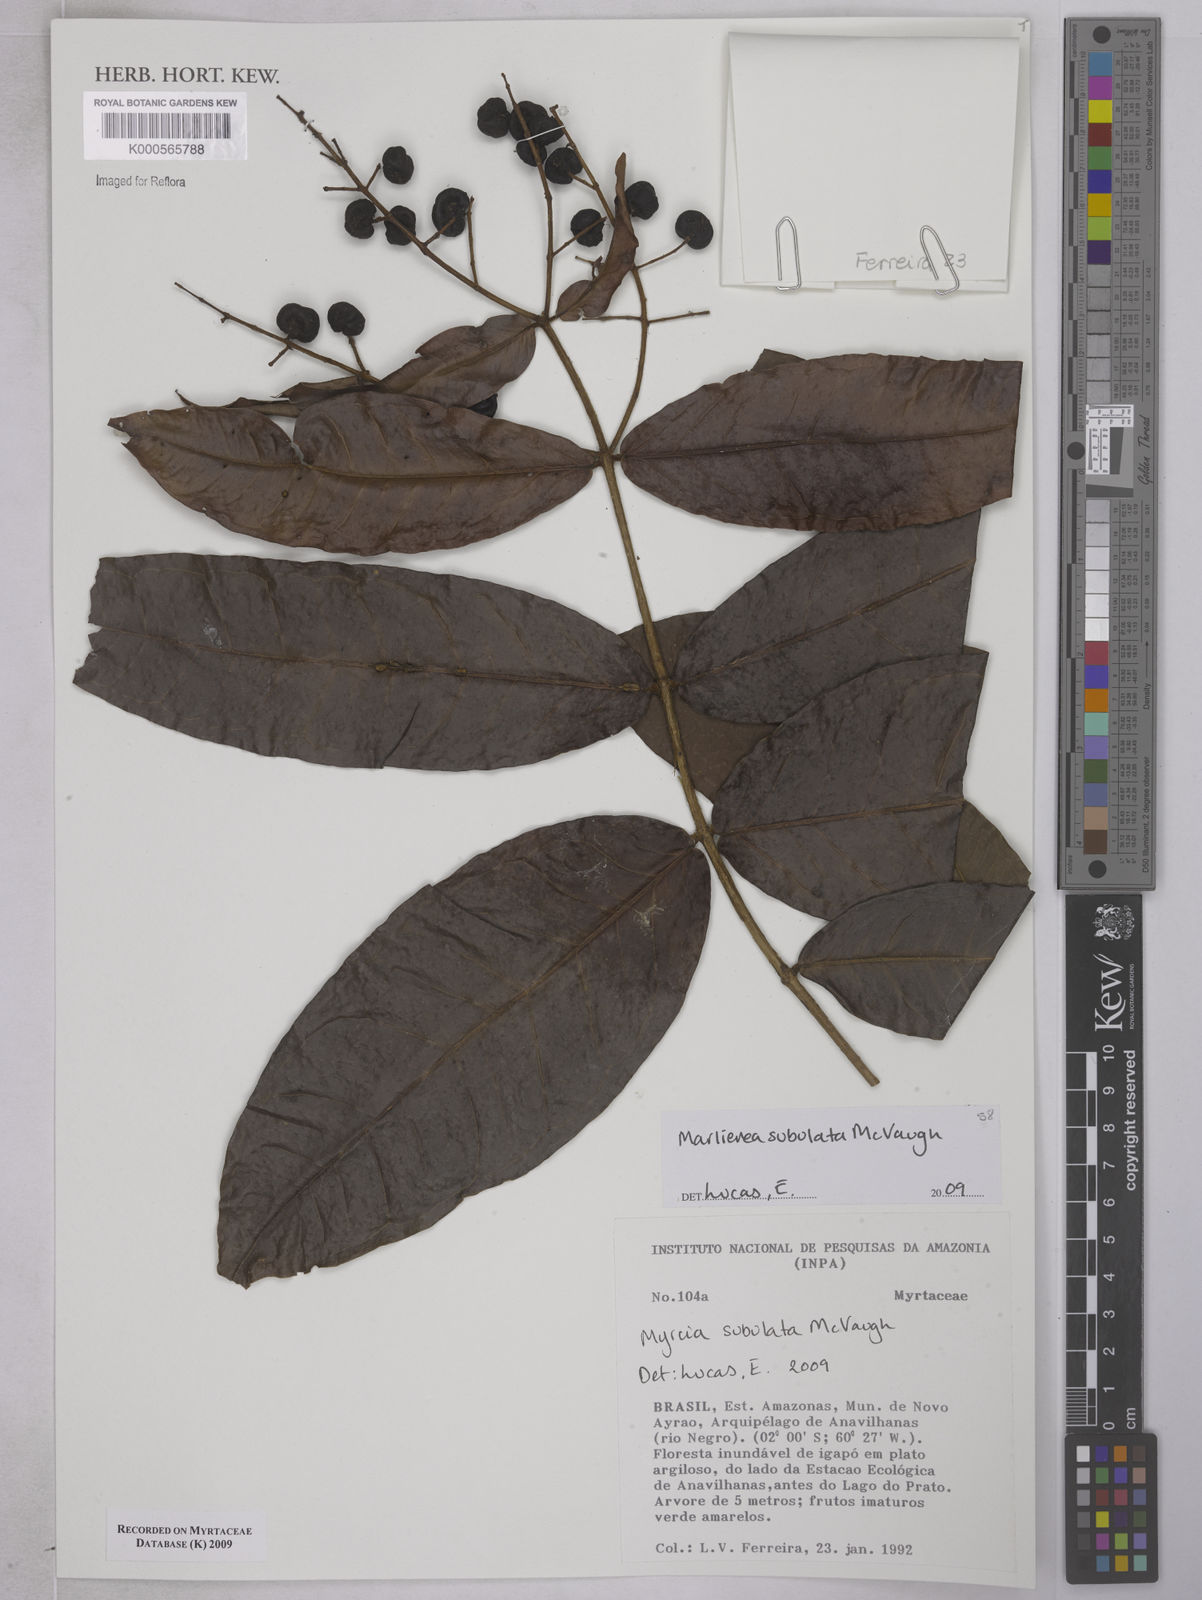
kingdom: Plantae
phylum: Tracheophyta
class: Magnoliopsida
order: Myrtales
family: Myrtaceae
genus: Myrcia
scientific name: Myrcia subulata
